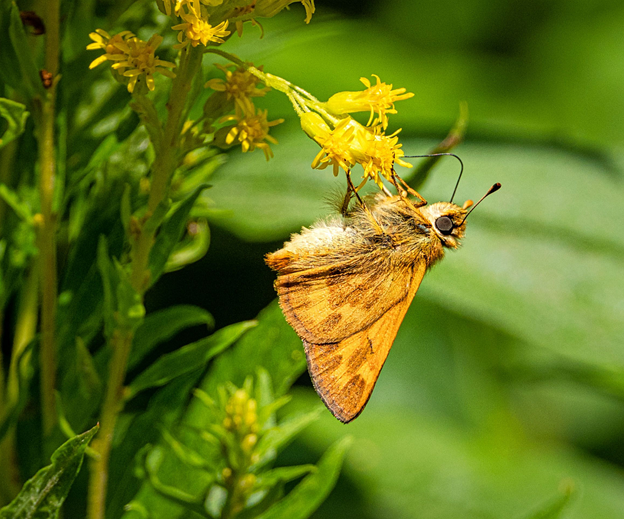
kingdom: Animalia
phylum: Arthropoda
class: Insecta
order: Lepidoptera
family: Hesperiidae
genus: Ochlodes
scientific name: Ochlodes sylvanoides
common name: Woodland Skipper
